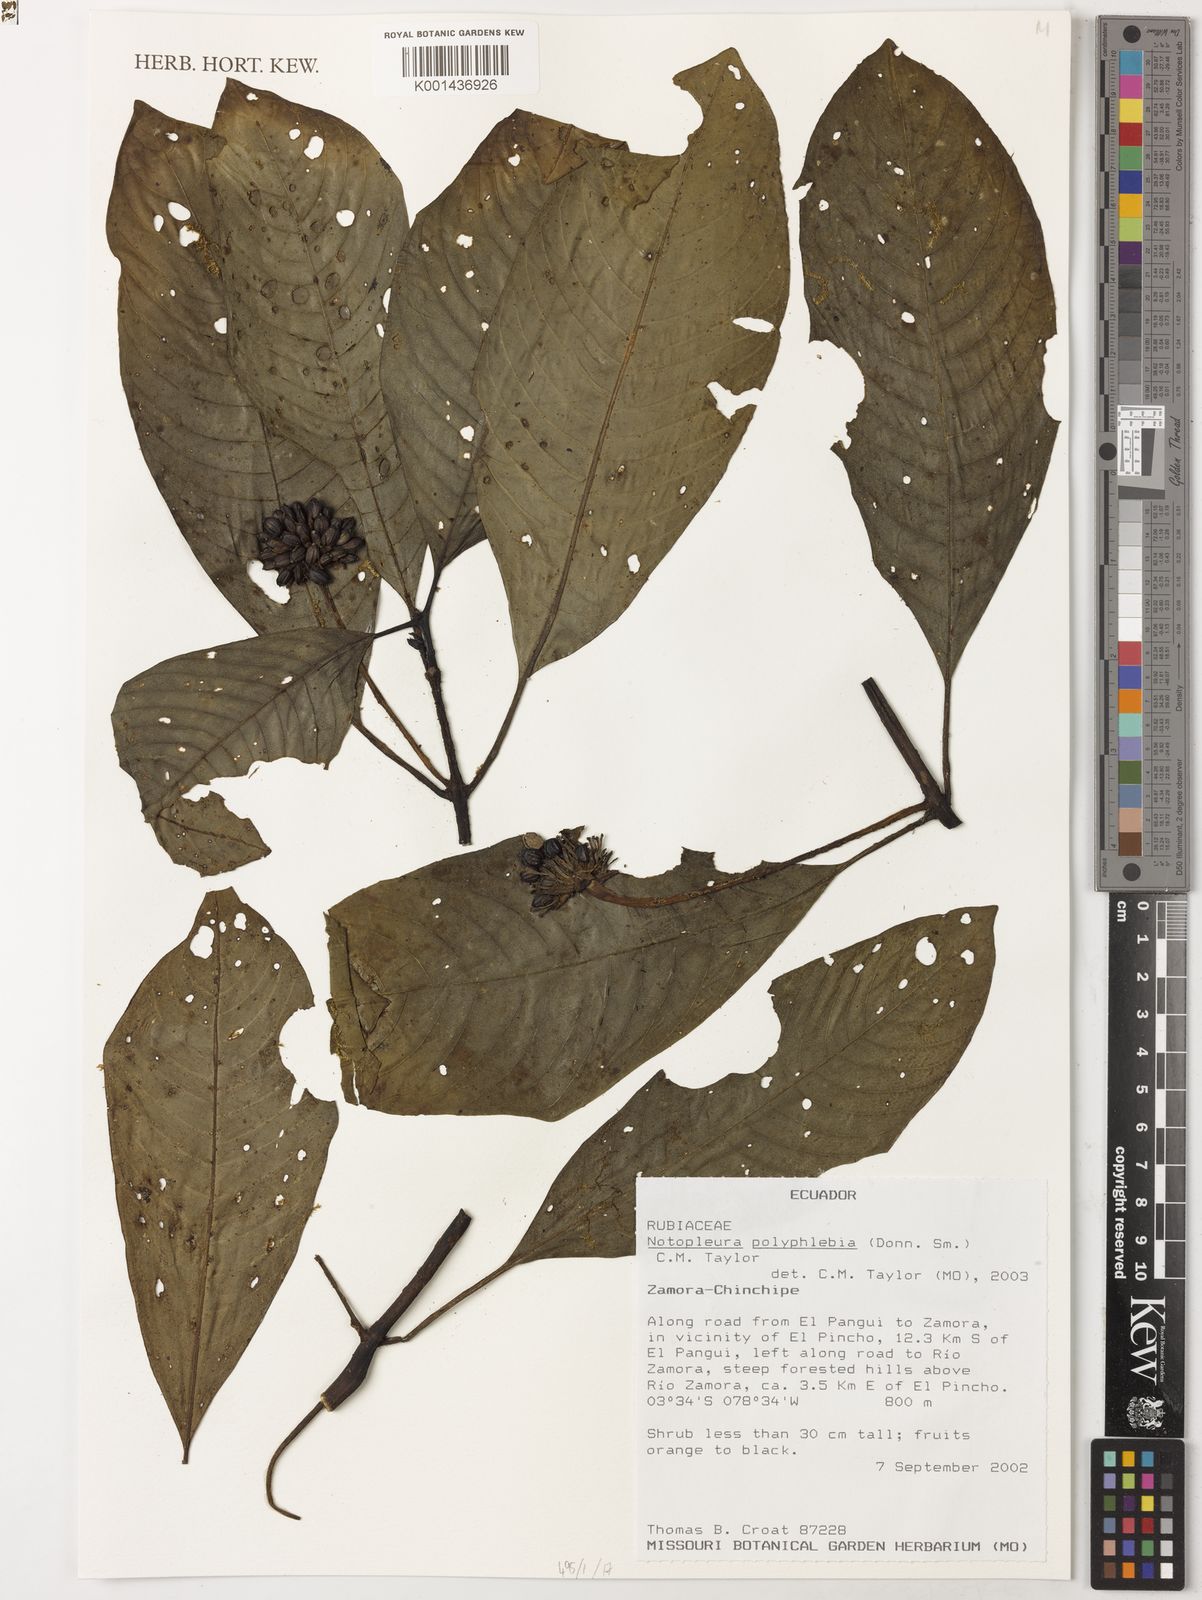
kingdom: Plantae
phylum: Tracheophyta
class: Magnoliopsida
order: Gentianales
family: Rubiaceae
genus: Notopleura
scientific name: Notopleura polyphlebia
